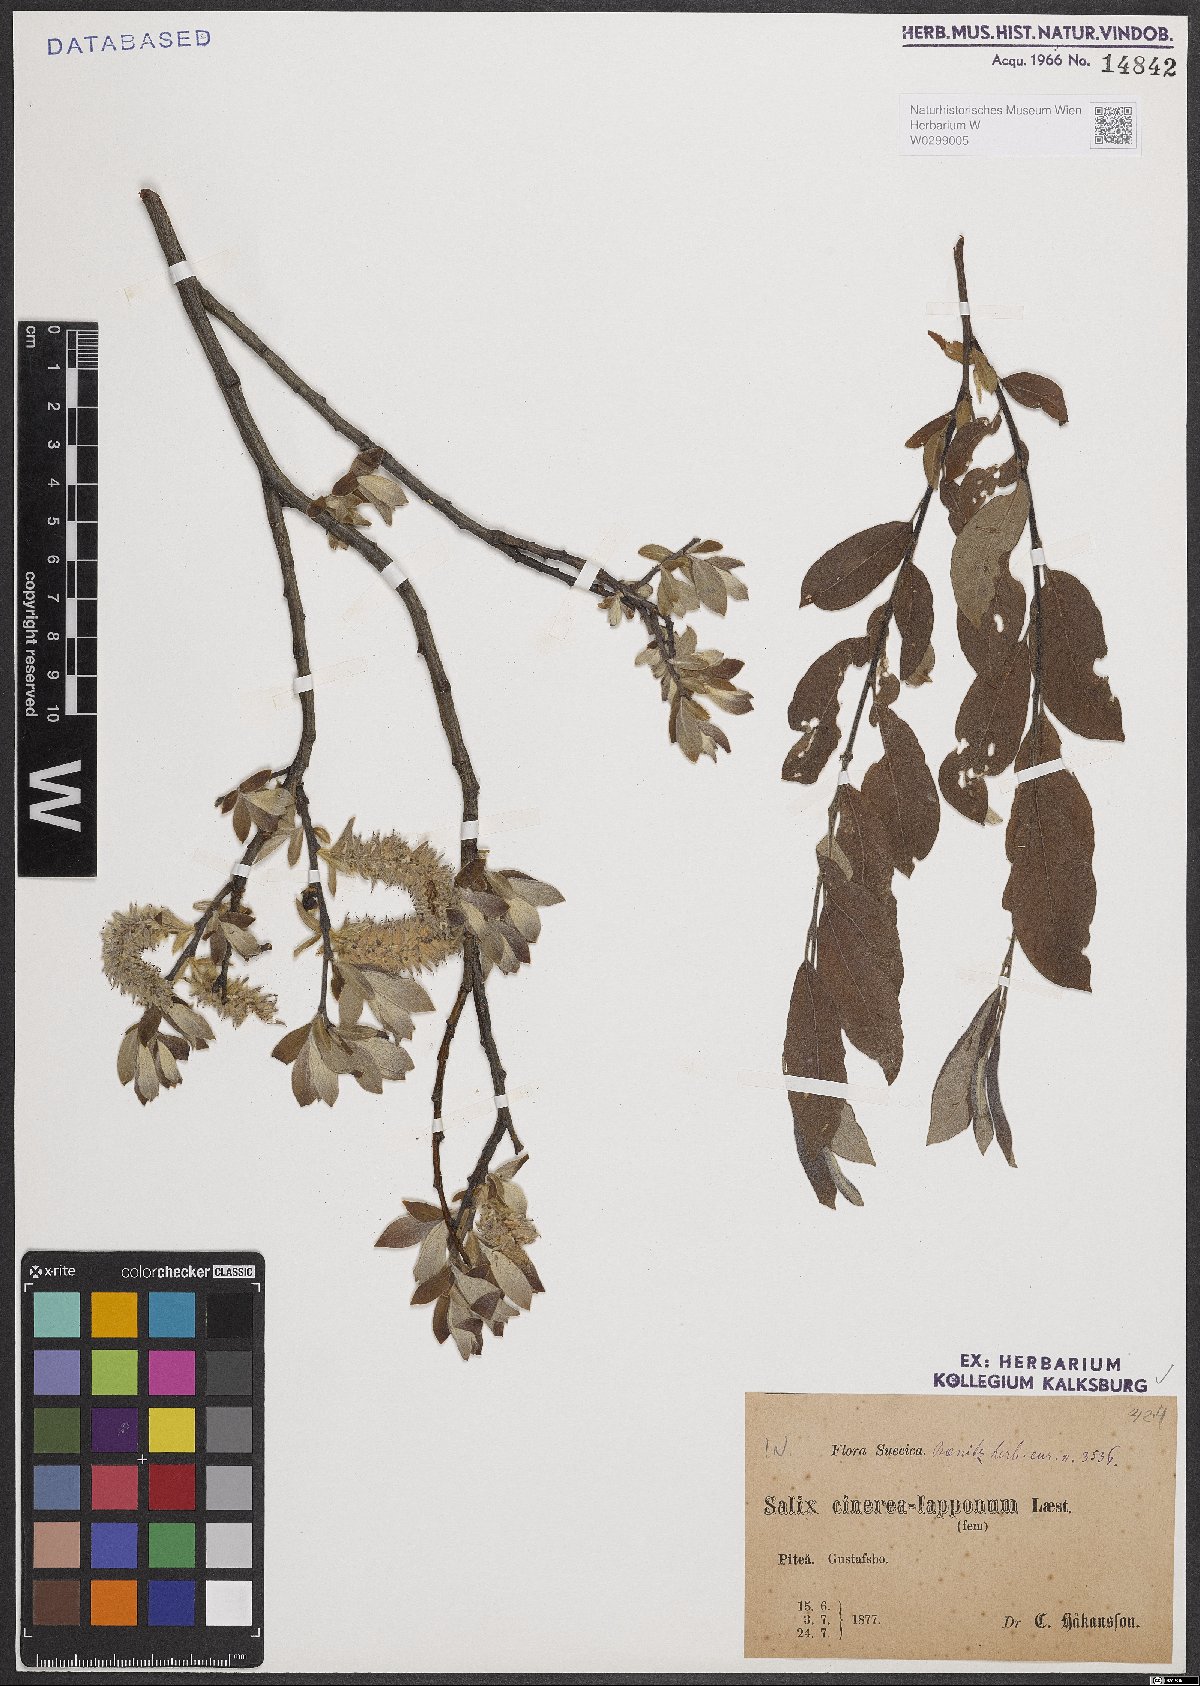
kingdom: Plantae
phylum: Tracheophyta
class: Magnoliopsida
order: Malpighiales
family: Salicaceae
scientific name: Salicaceae
